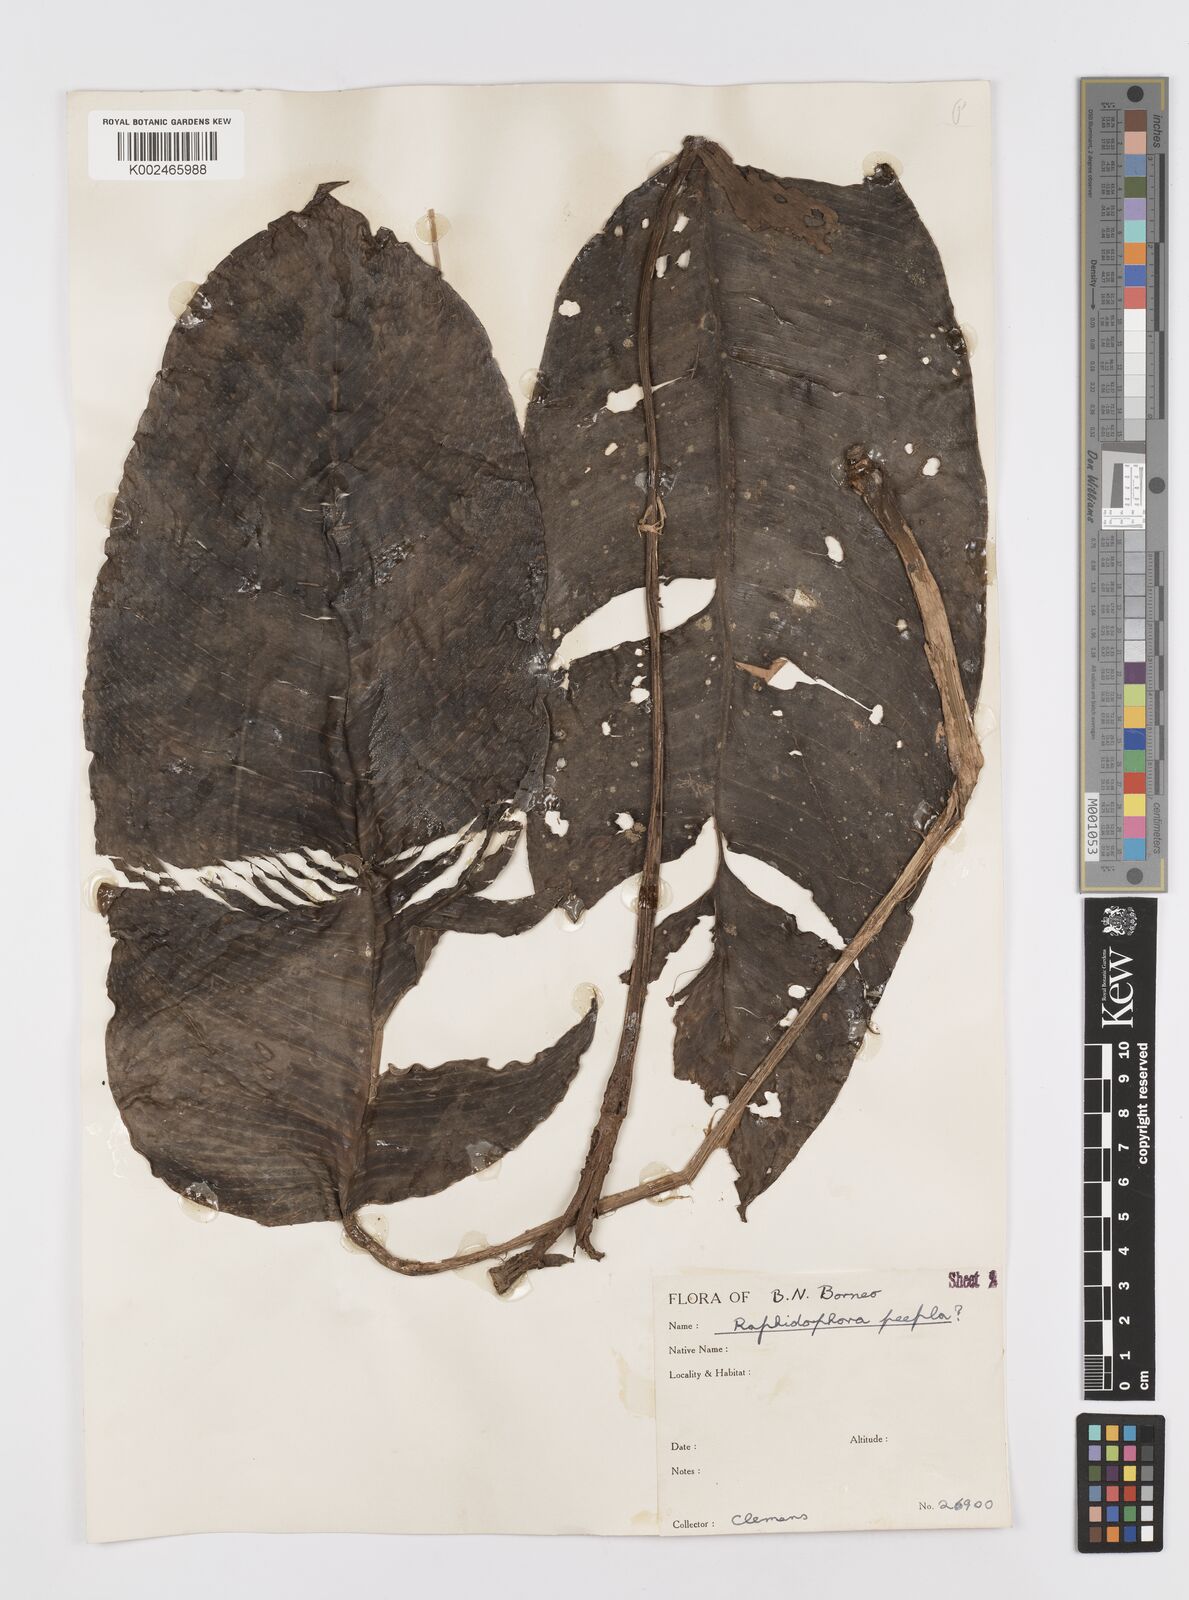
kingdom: Plantae
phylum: Tracheophyta
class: Liliopsida
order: Alismatales
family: Araceae
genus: Rhaphidophora
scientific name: Rhaphidophora puberula
